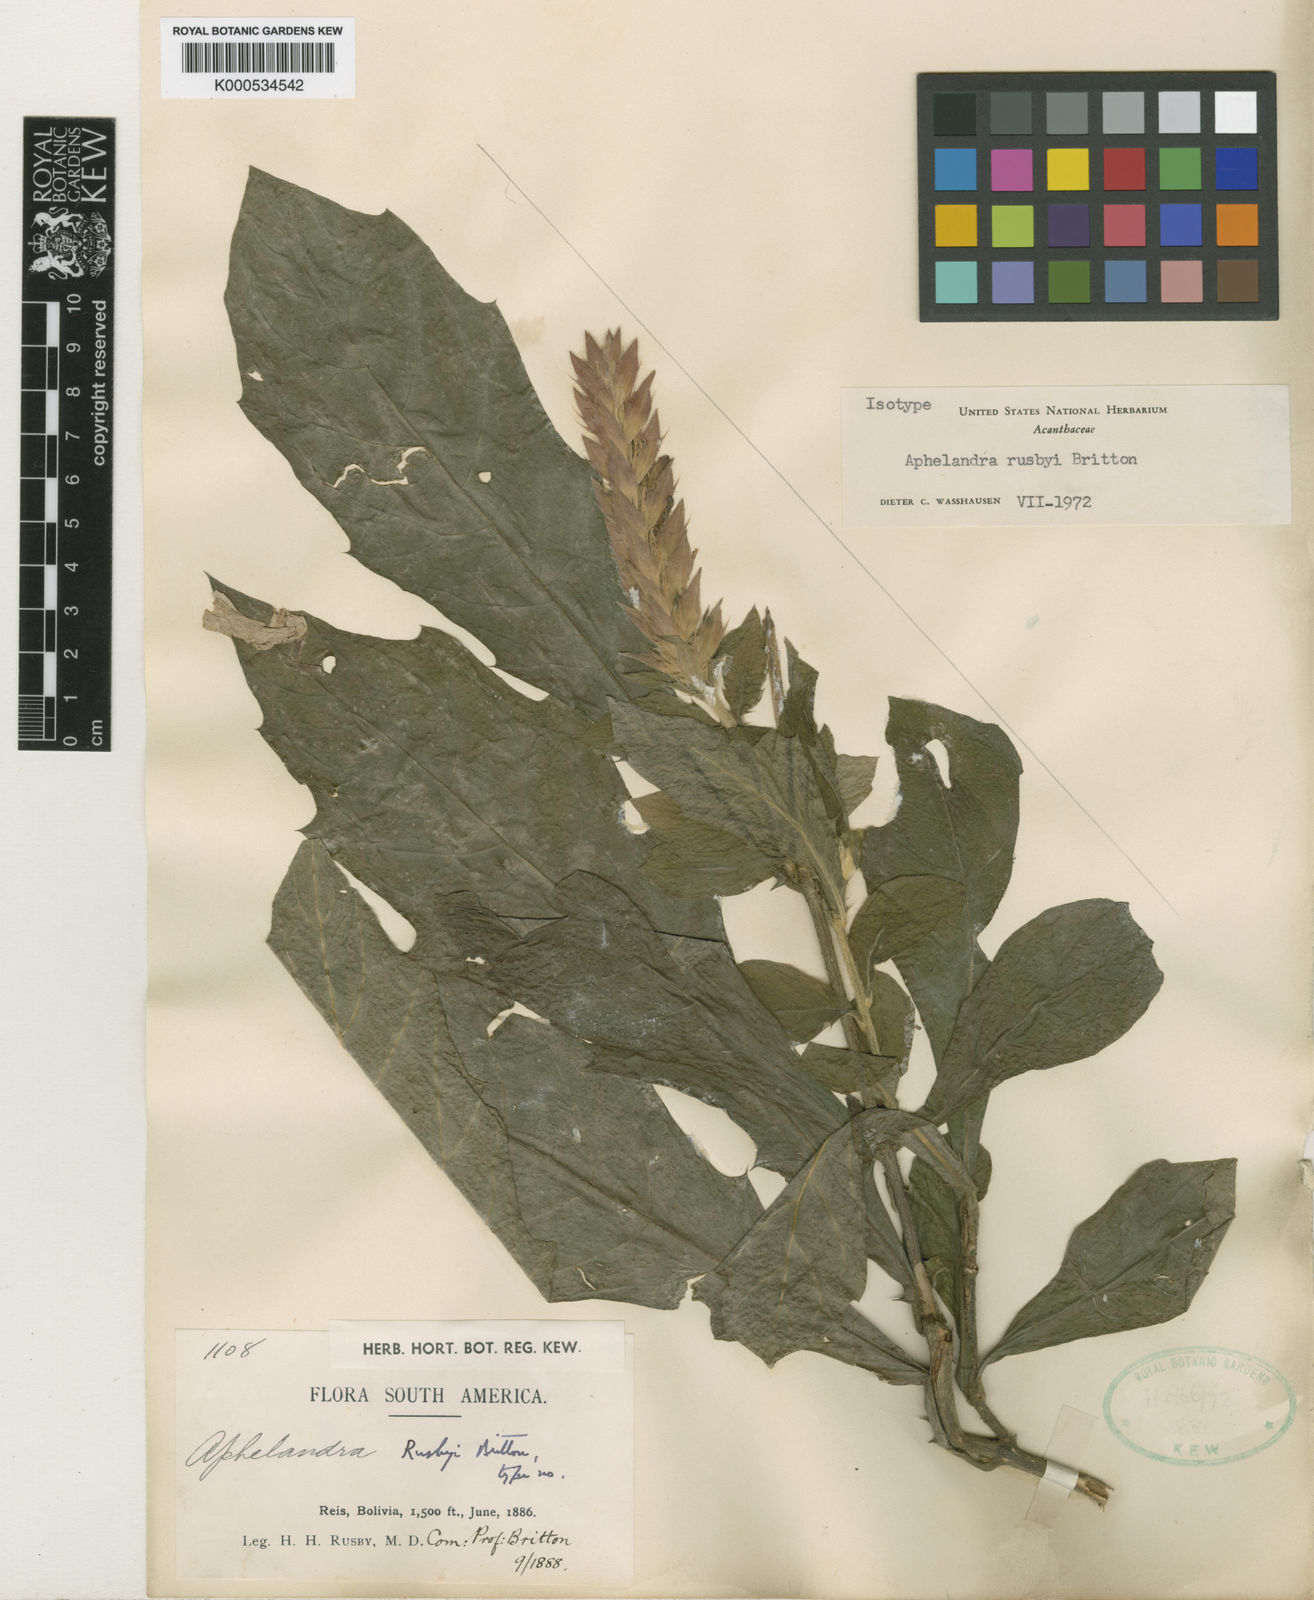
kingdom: Plantae
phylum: Tracheophyta
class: Magnoliopsida
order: Lamiales
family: Acanthaceae
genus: Aphelandra
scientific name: Aphelandra rusbyi
